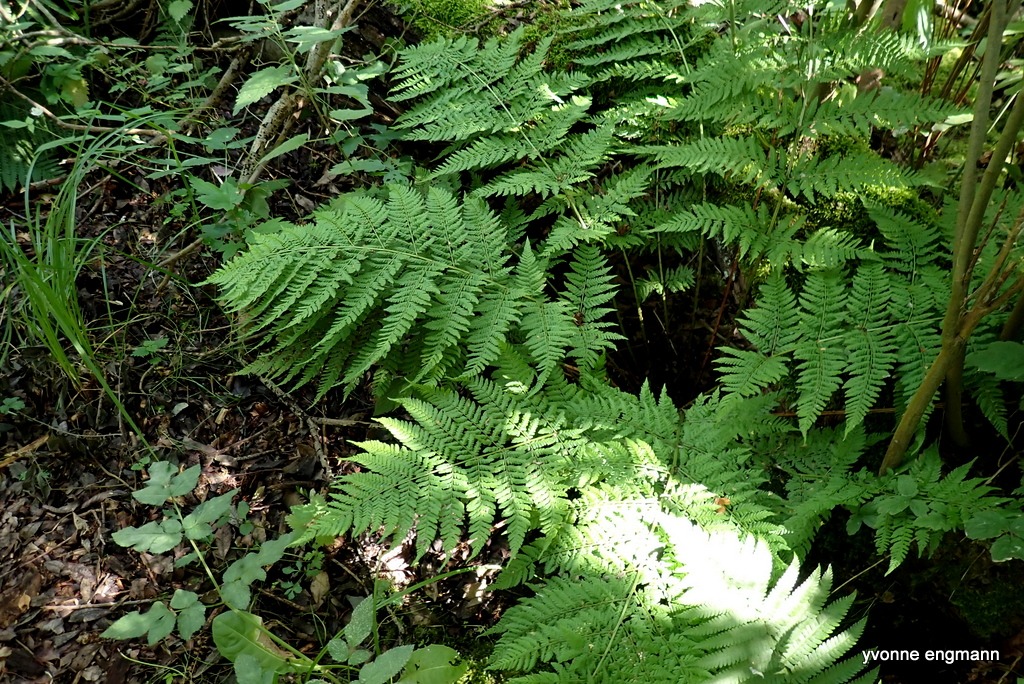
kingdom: Plantae
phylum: Tracheophyta
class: Polypodiopsida
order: Polypodiales
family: Dryopteridaceae
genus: Dryopteris
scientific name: Dryopteris dilatata
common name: Bredbladet mangeløv
